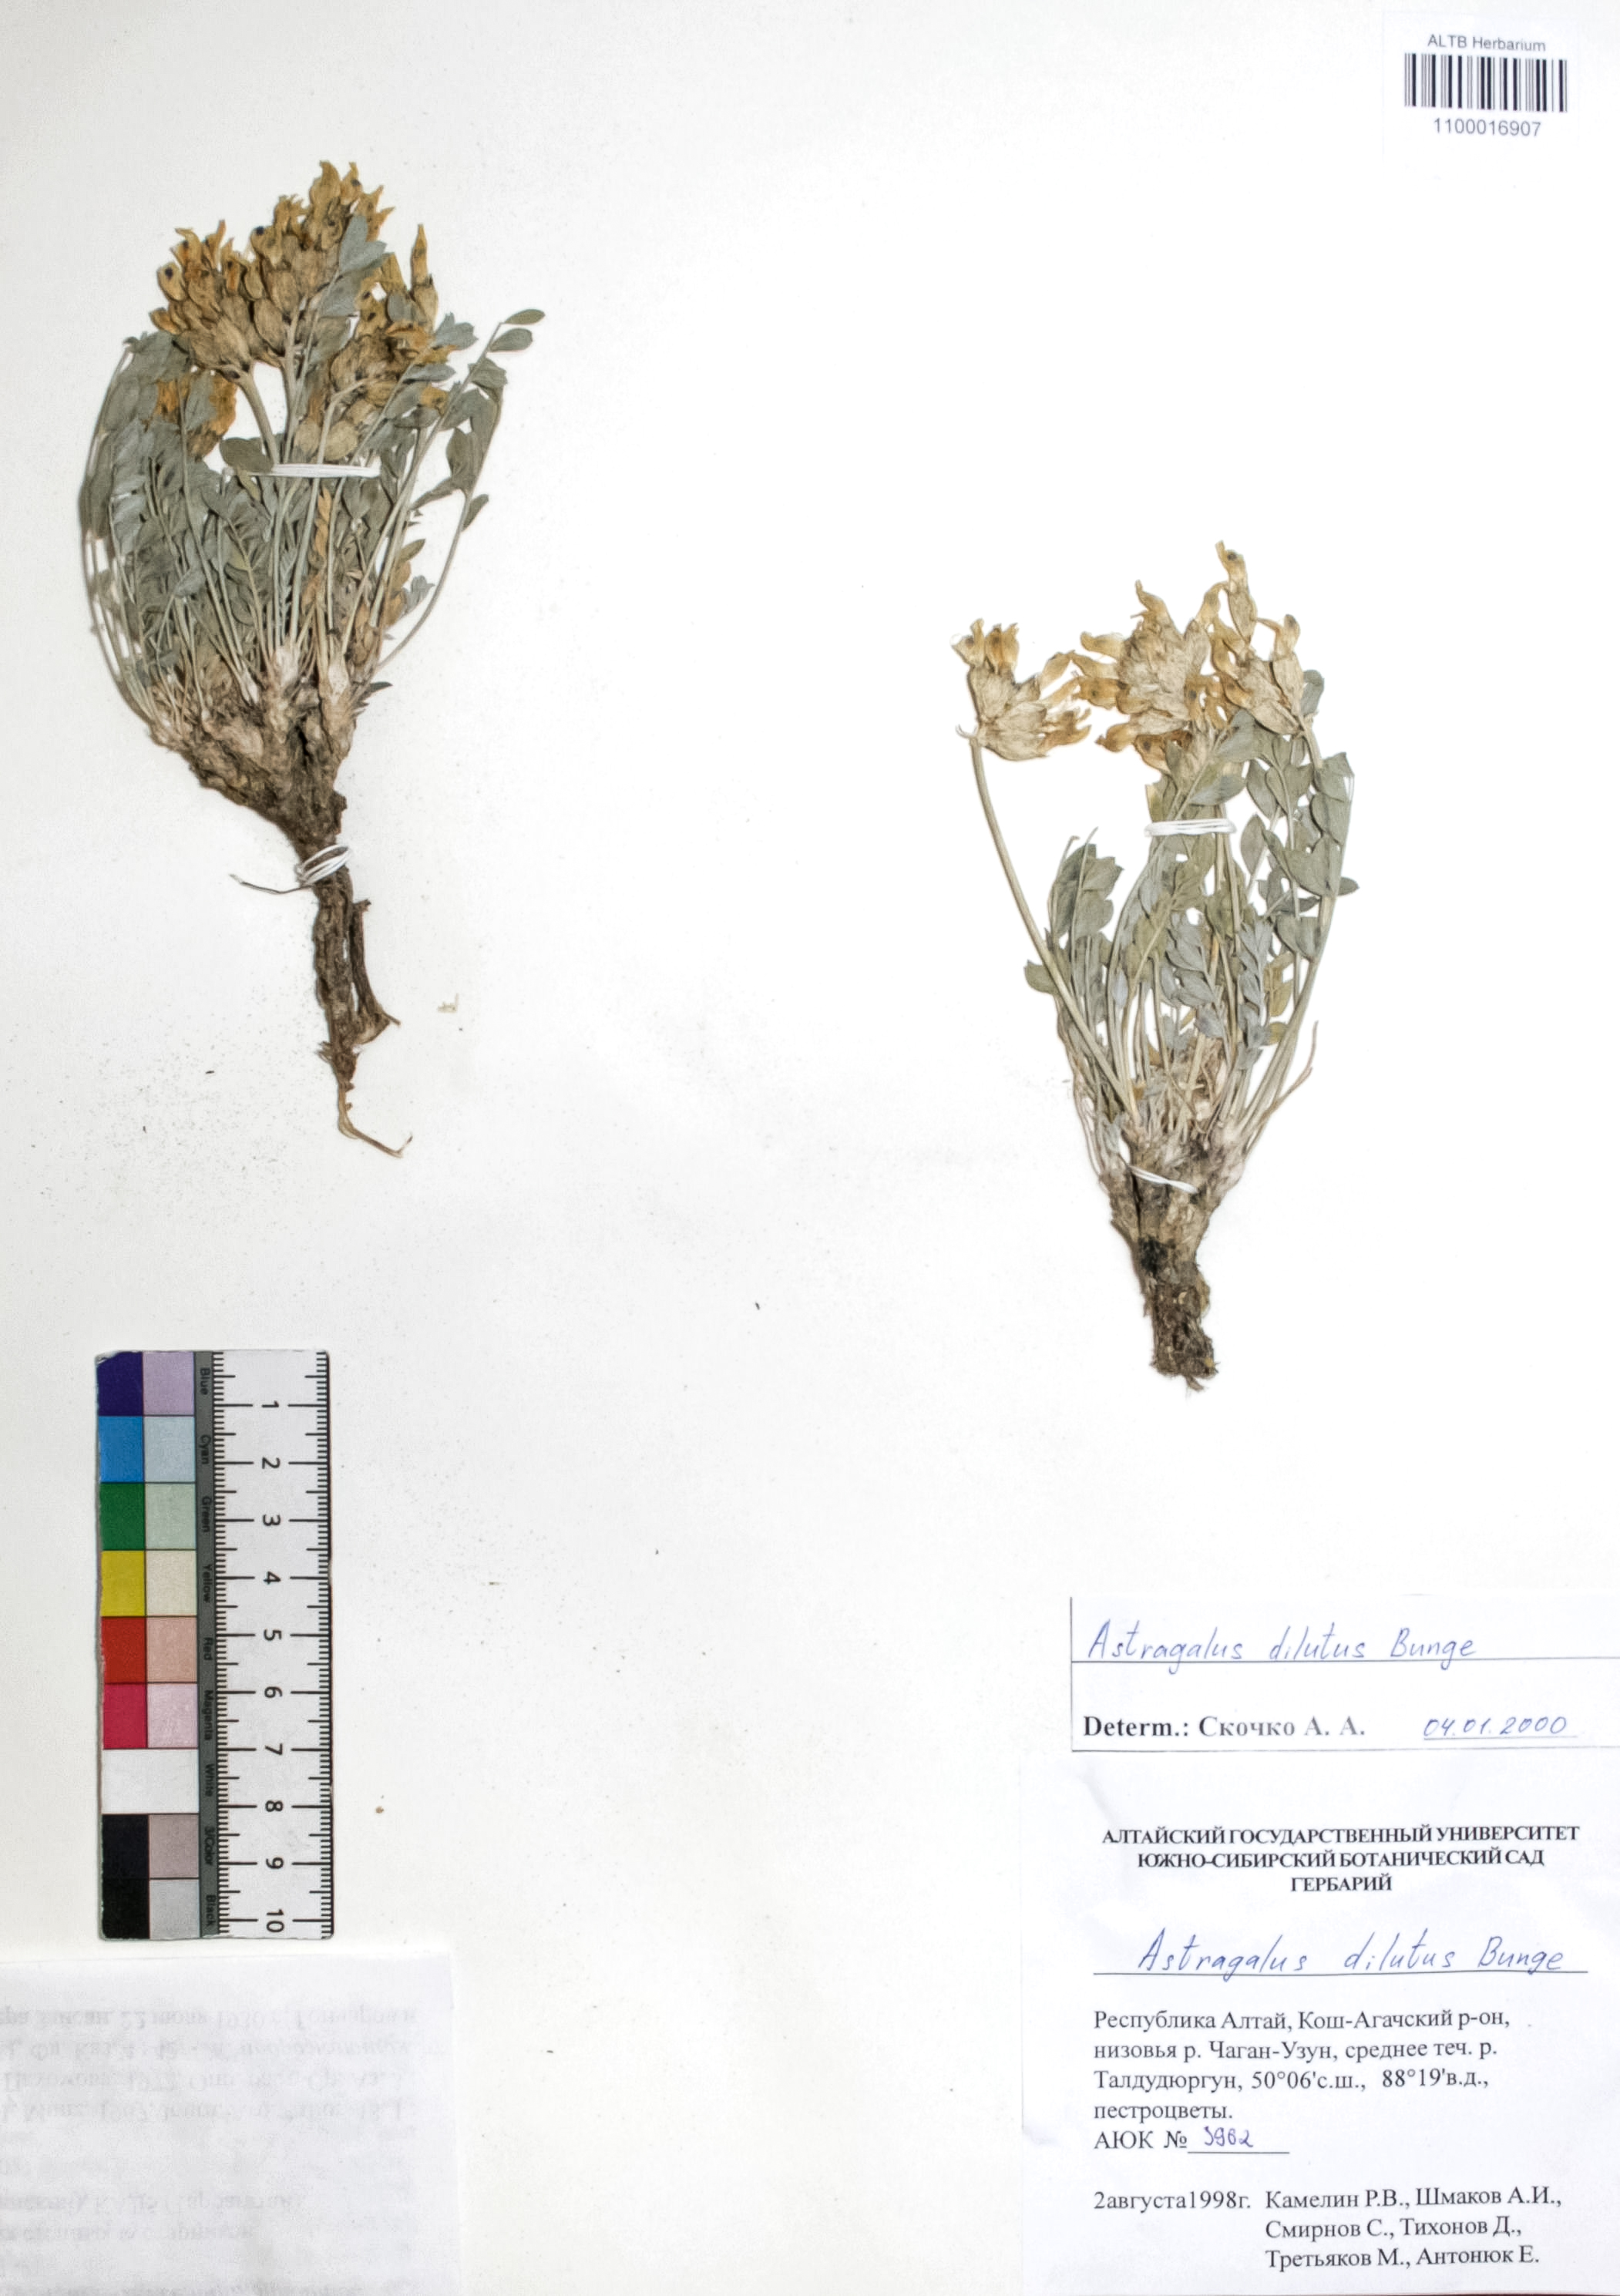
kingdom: Plantae
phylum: Tracheophyta
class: Magnoliopsida
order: Fabales
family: Fabaceae
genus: Astragalus
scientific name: Astragalus dilutus
